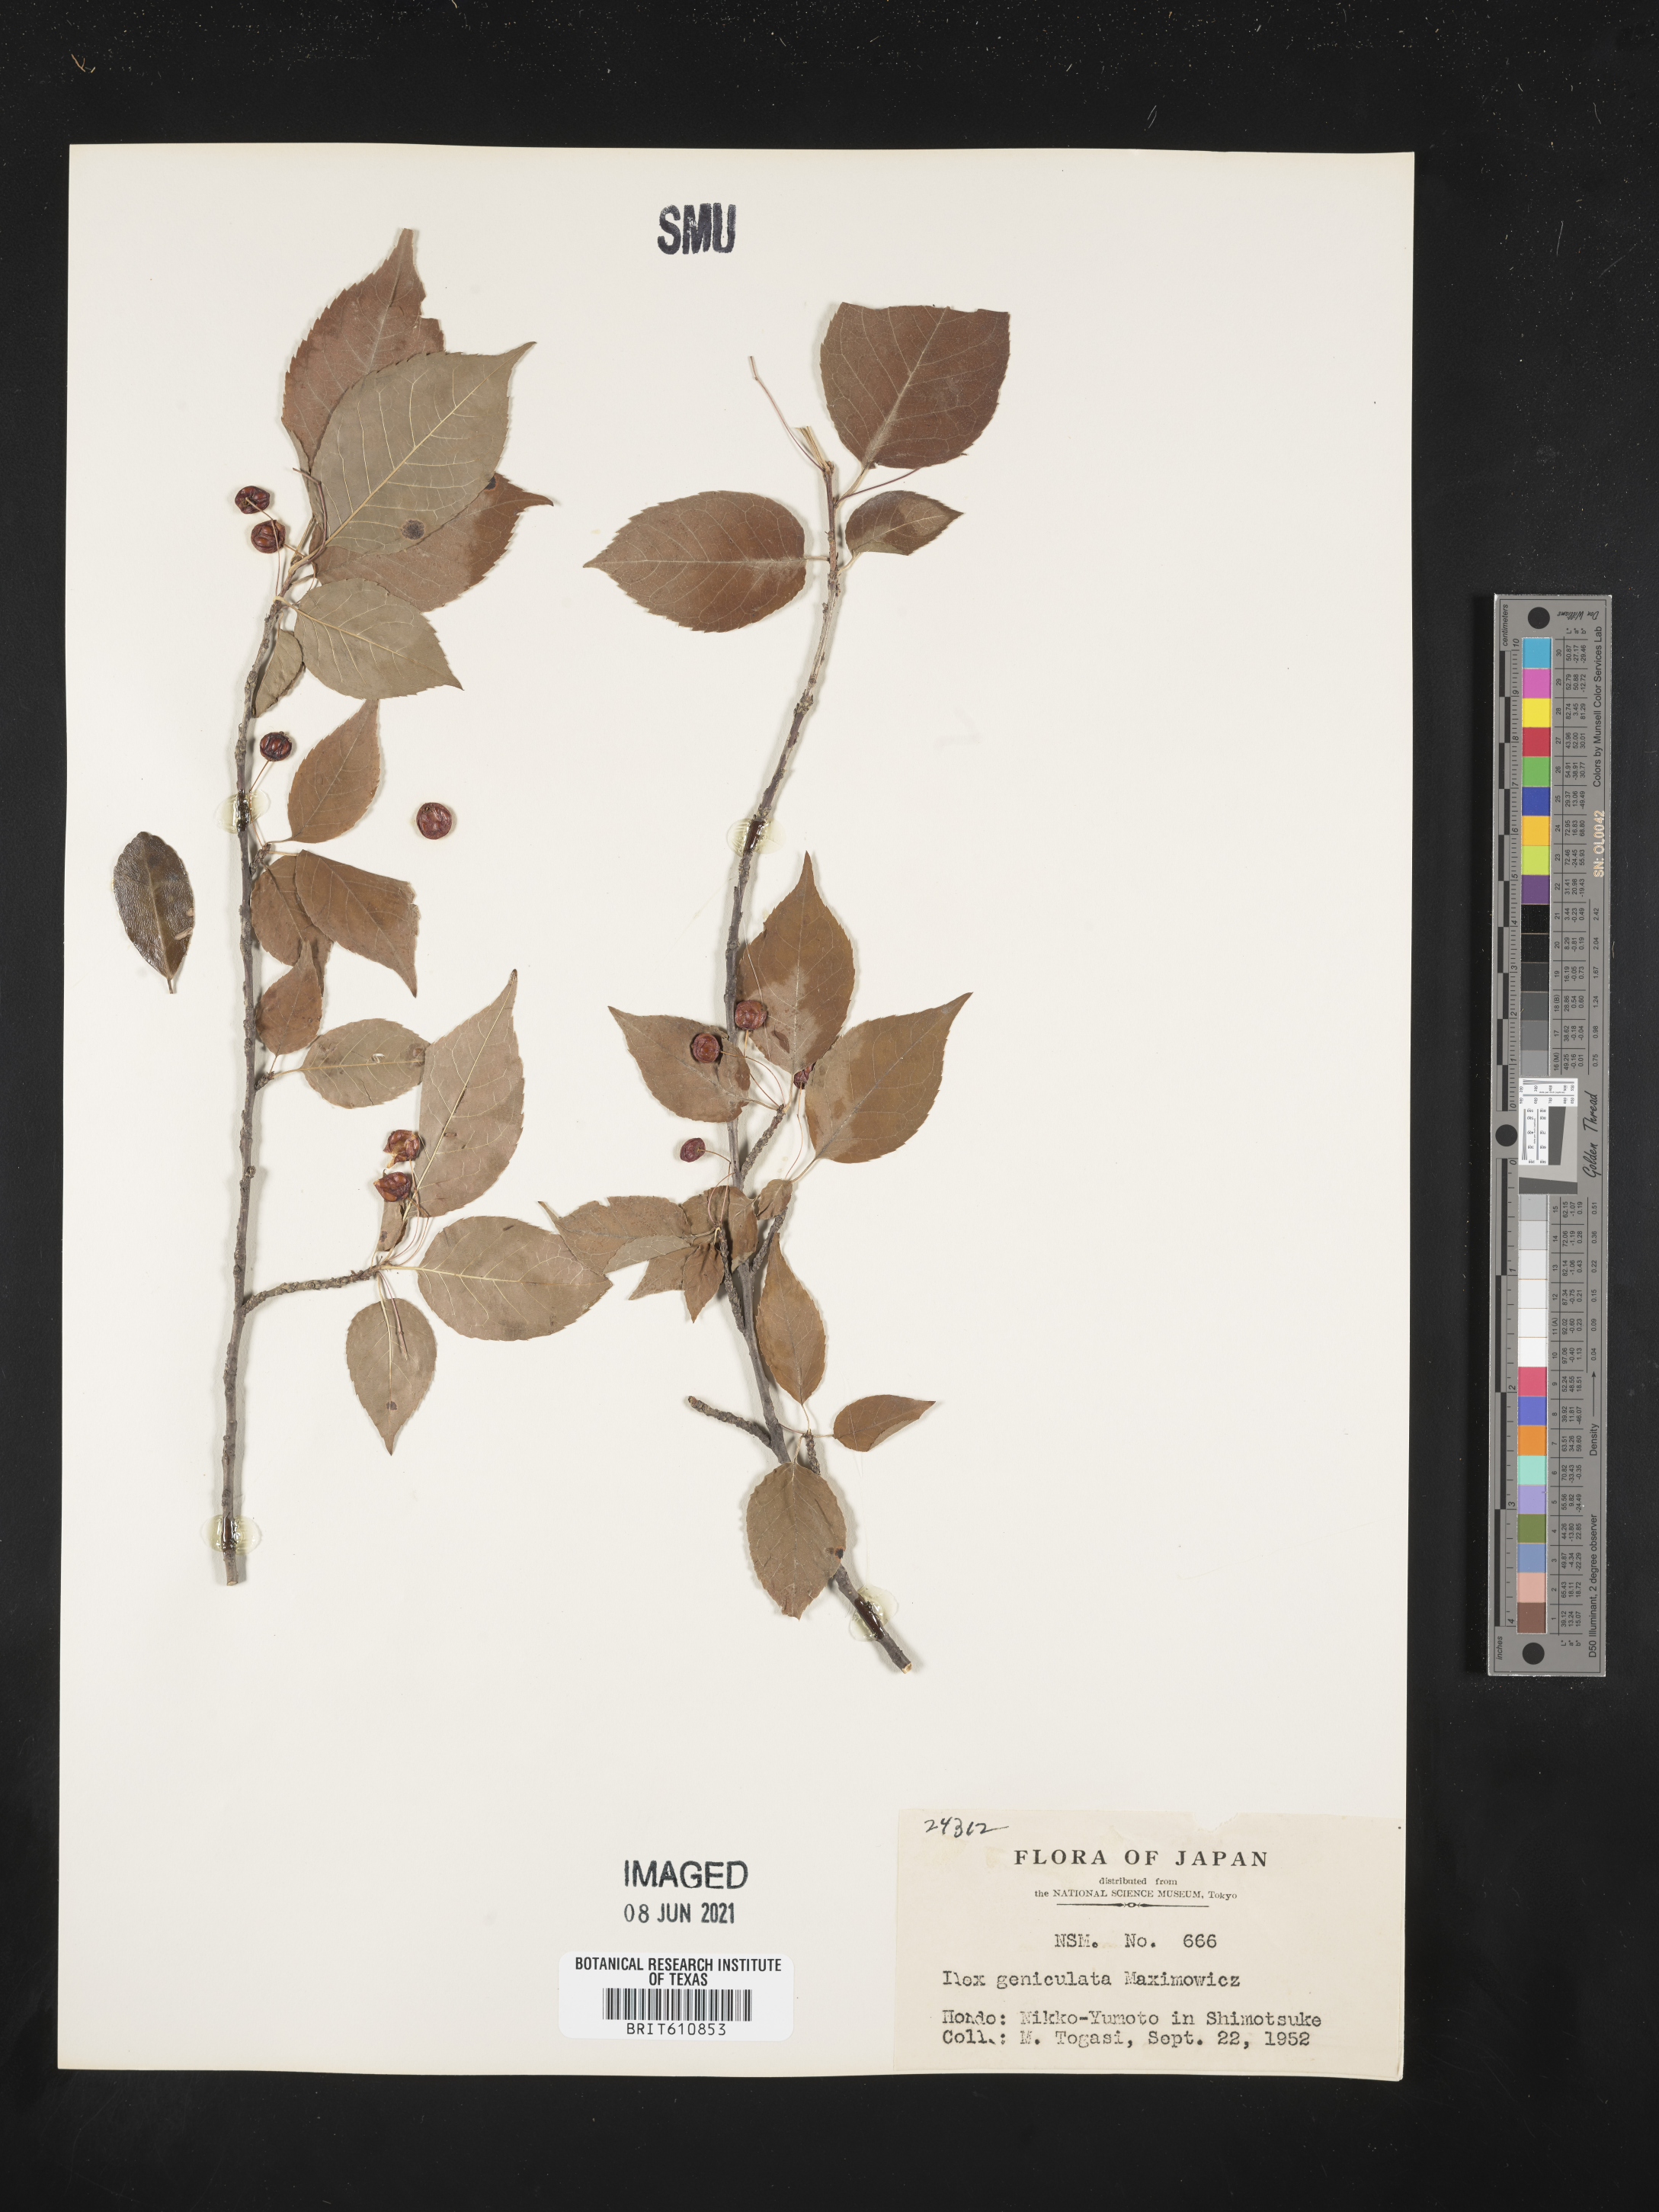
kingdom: Plantae
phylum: Tracheophyta
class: Magnoliopsida
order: Aquifoliales
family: Aquifoliaceae
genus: Ilex
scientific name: Ilex geniculata
